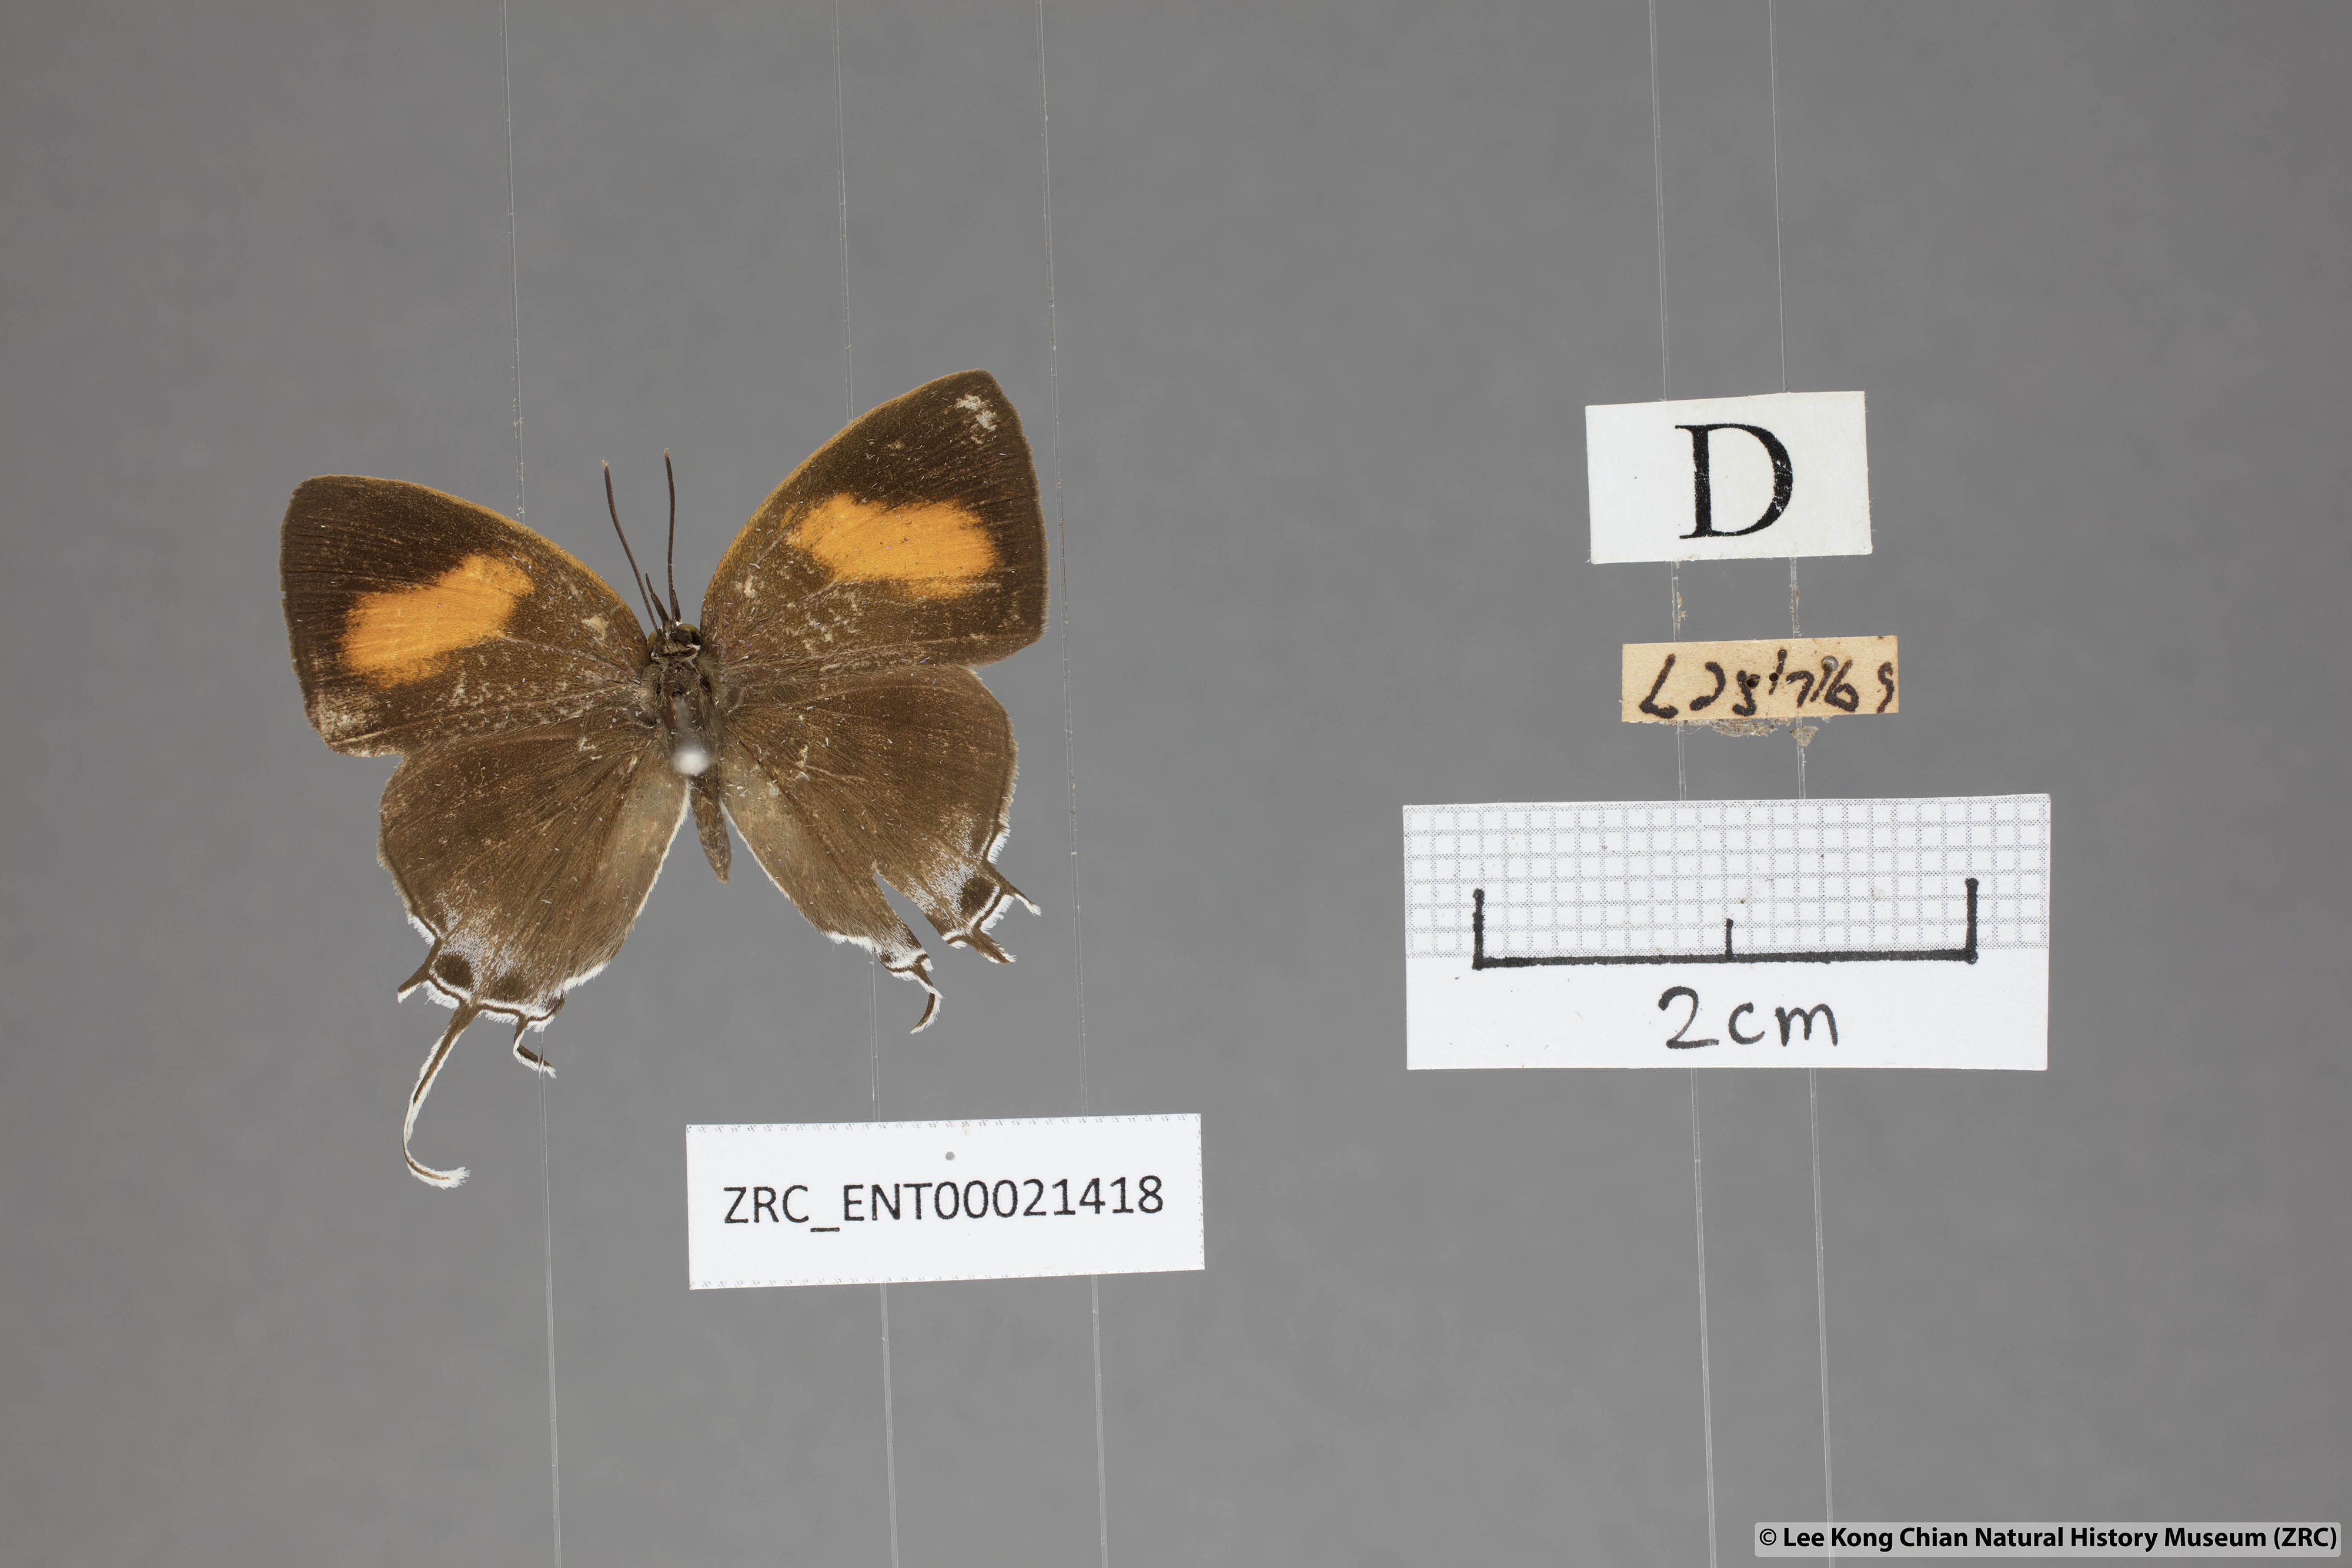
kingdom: Animalia
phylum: Arthropoda
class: Insecta
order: Lepidoptera
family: Lycaenidae
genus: Drupadia
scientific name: Drupadia theda
